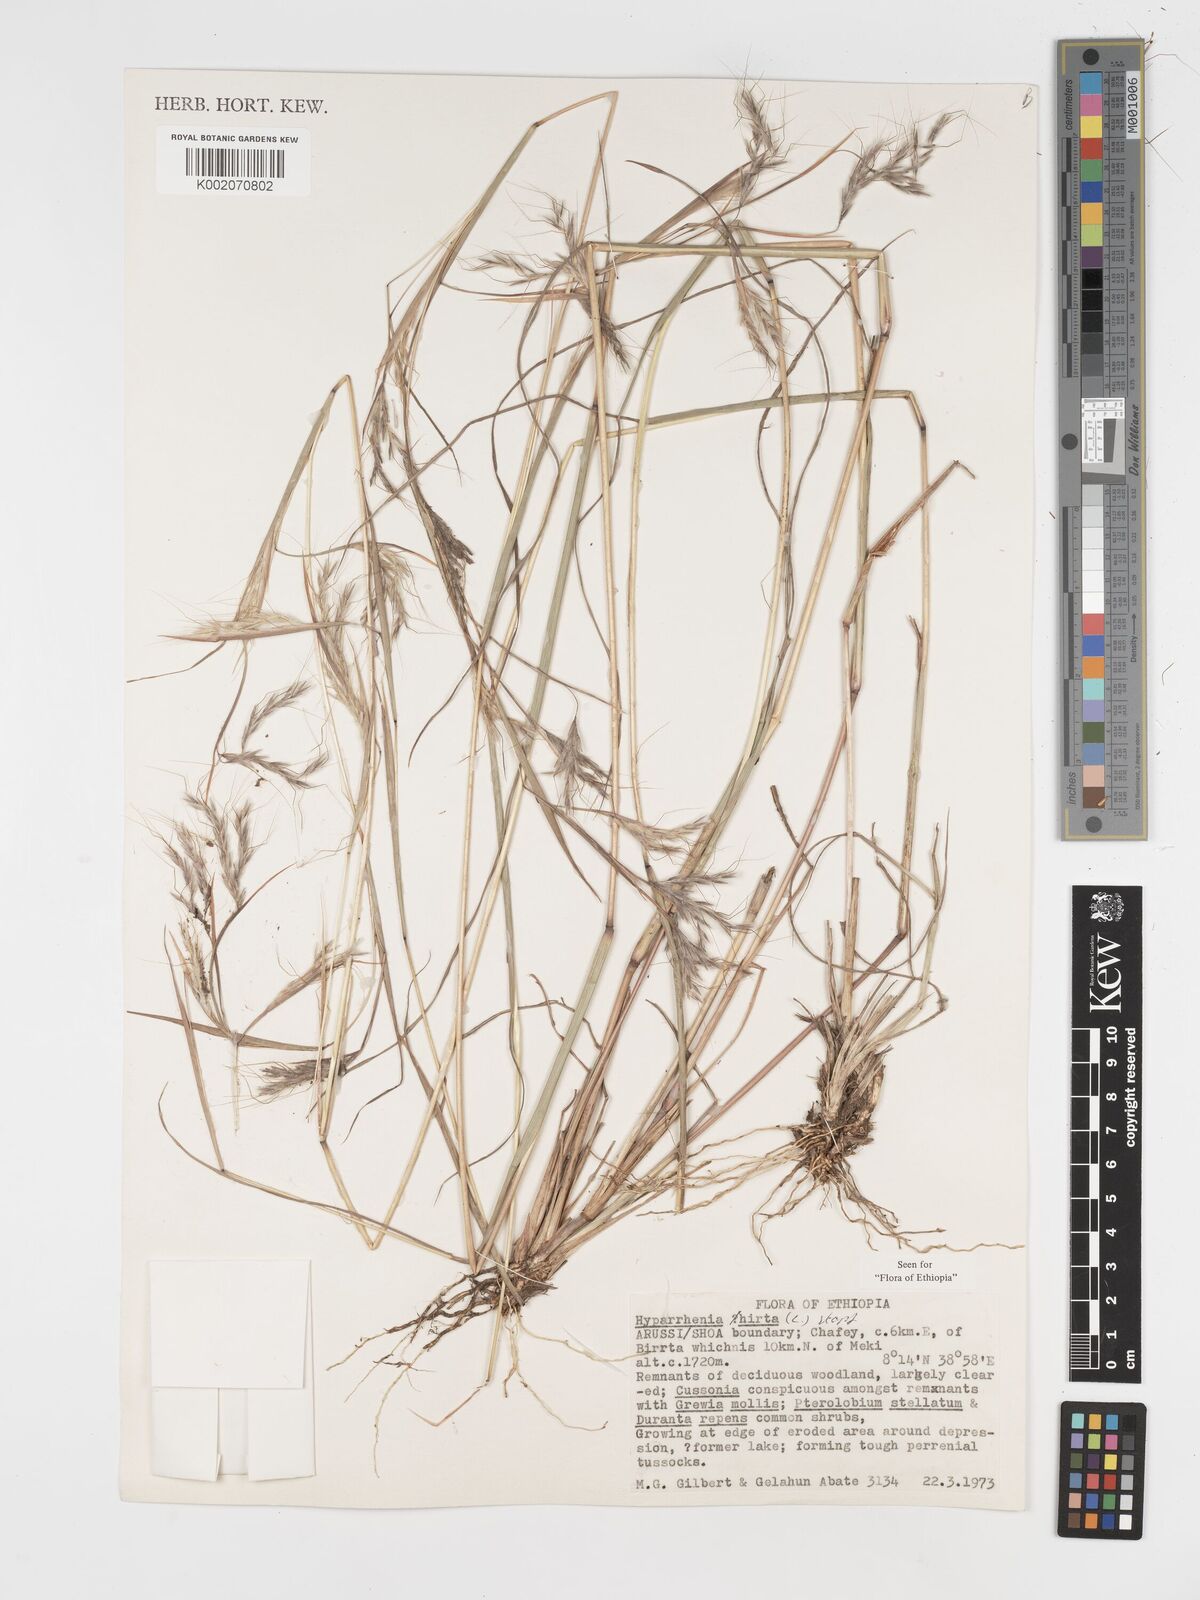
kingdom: Plantae
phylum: Tracheophyta
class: Liliopsida
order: Poales
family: Poaceae
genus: Hyparrhenia
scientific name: Hyparrhenia hirta
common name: Thatching grass
